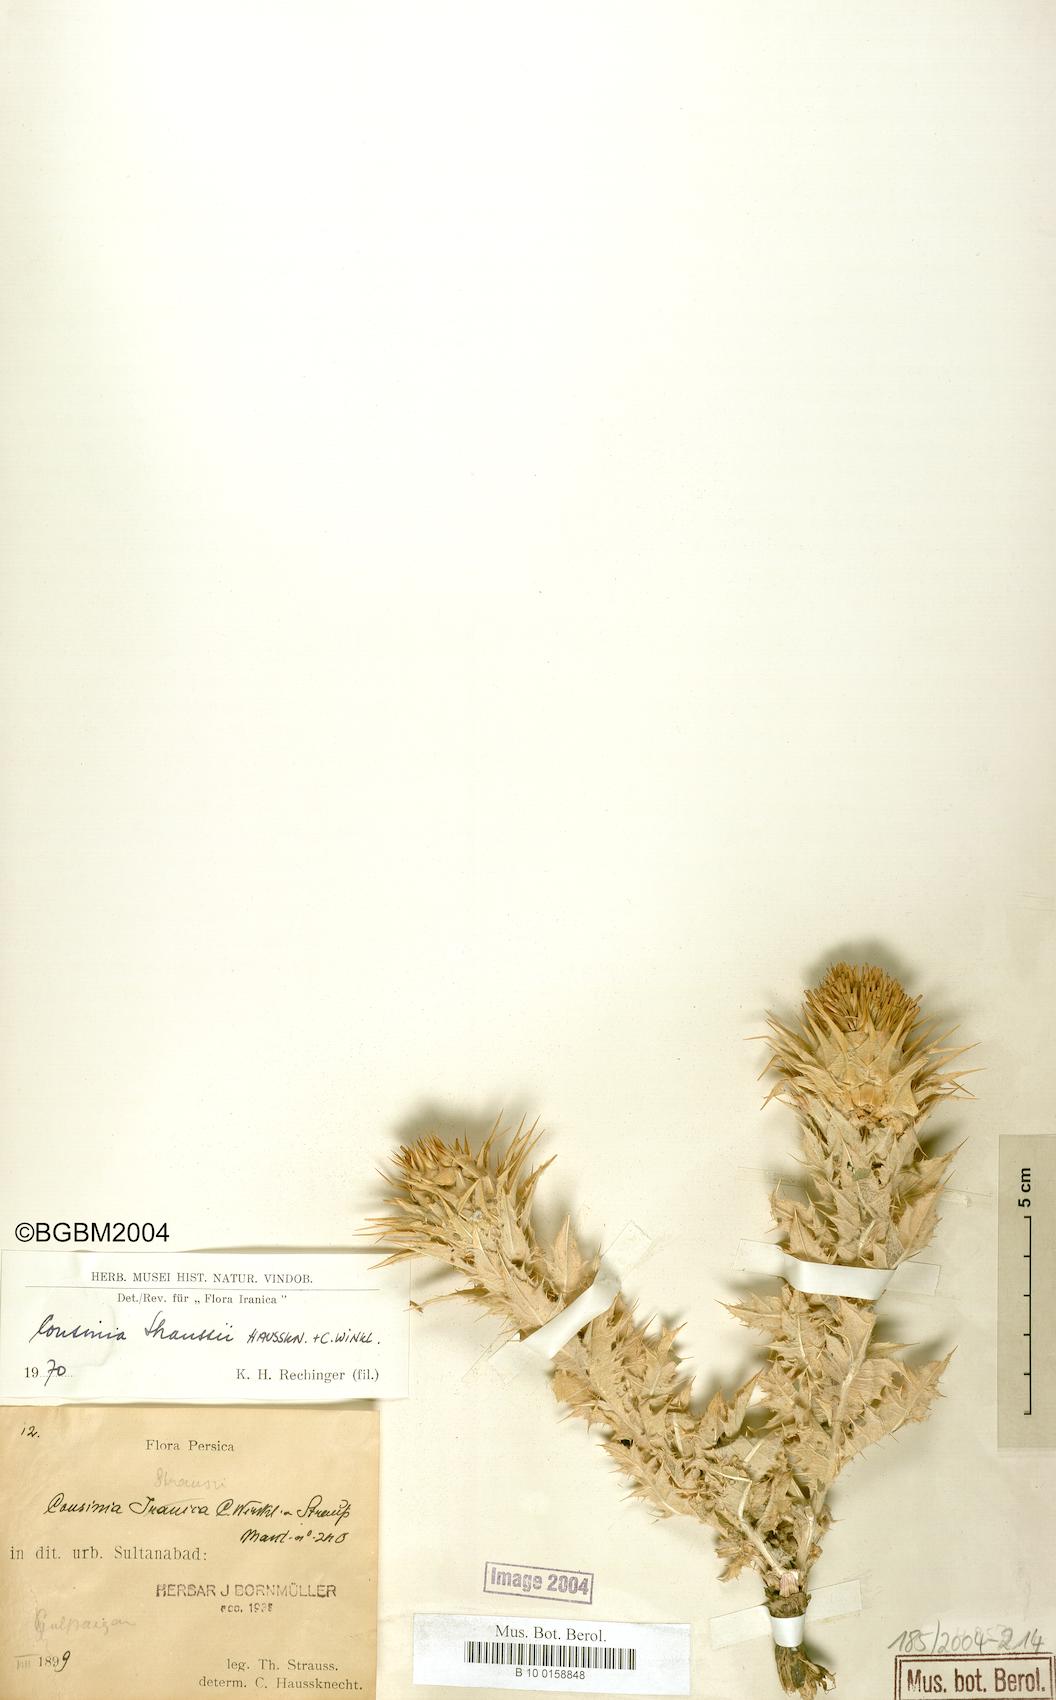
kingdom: Plantae
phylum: Tracheophyta
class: Magnoliopsida
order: Asterales
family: Asteraceae
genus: Cousinia
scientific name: Cousinia inflata
